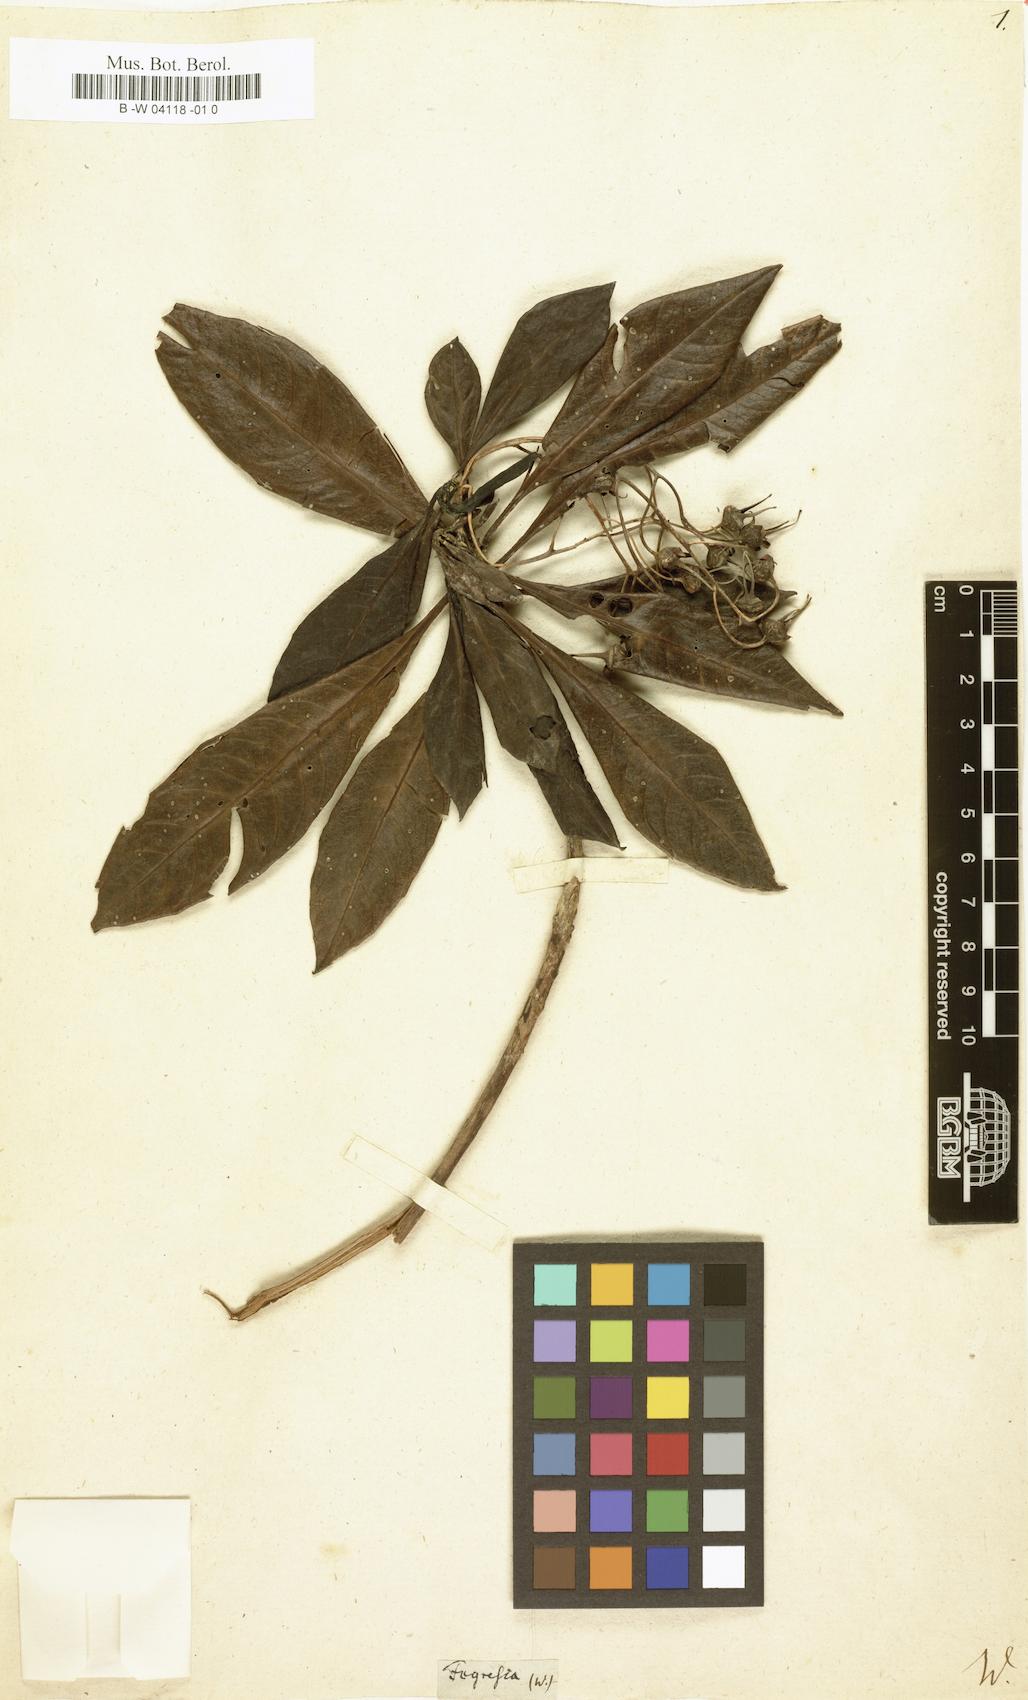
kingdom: Plantae
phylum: Tracheophyta
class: Magnoliopsida
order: Escalloniales
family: Escalloniaceae
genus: Forgesia
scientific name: Forgesia racemosa
